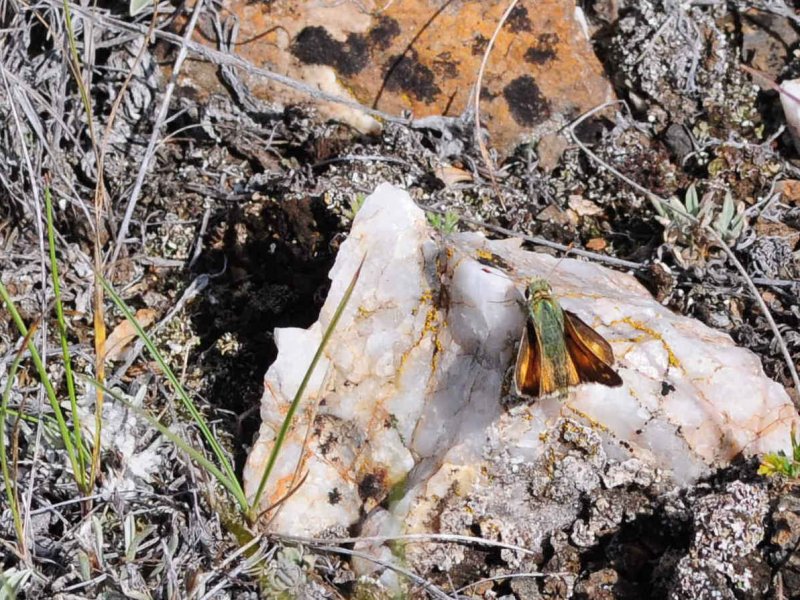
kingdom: Animalia
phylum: Arthropoda
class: Insecta
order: Lepidoptera
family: Hesperiidae
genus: Hesperia
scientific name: Hesperia juba
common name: Juba Skipper
